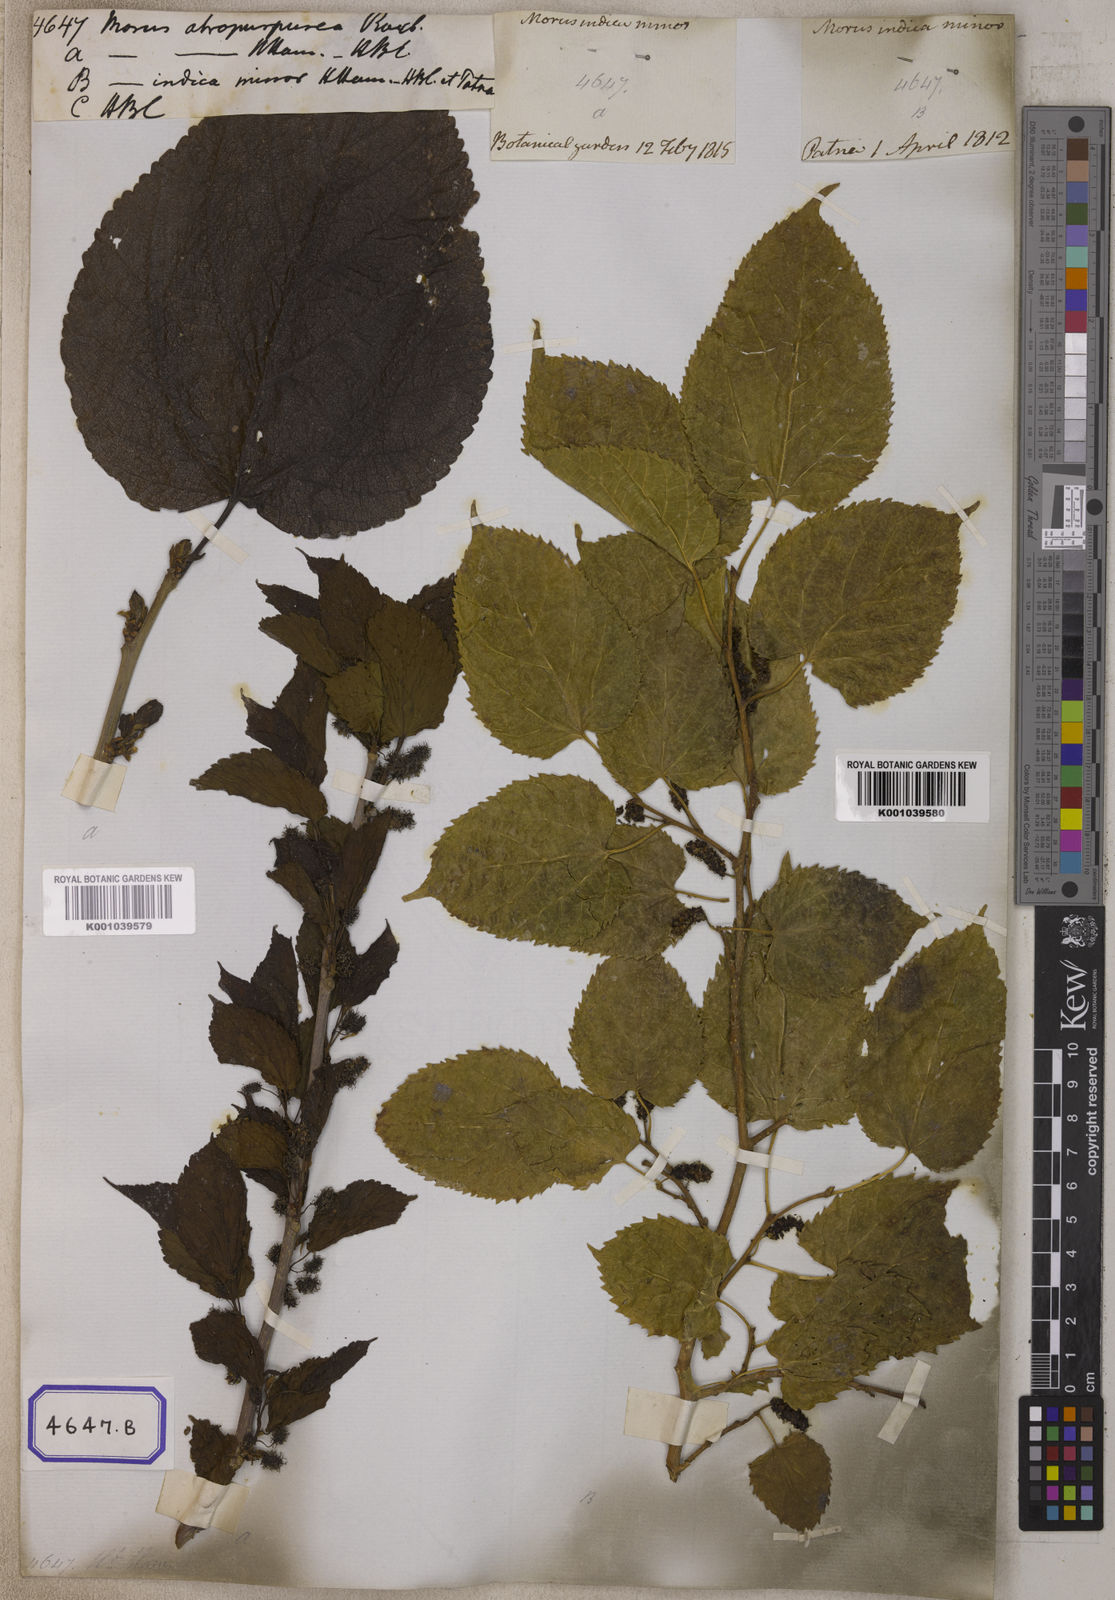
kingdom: Plantae
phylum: Tracheophyta
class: Magnoliopsida
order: Rosales
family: Moraceae
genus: Morus
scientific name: Morus alba
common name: White mulberry
